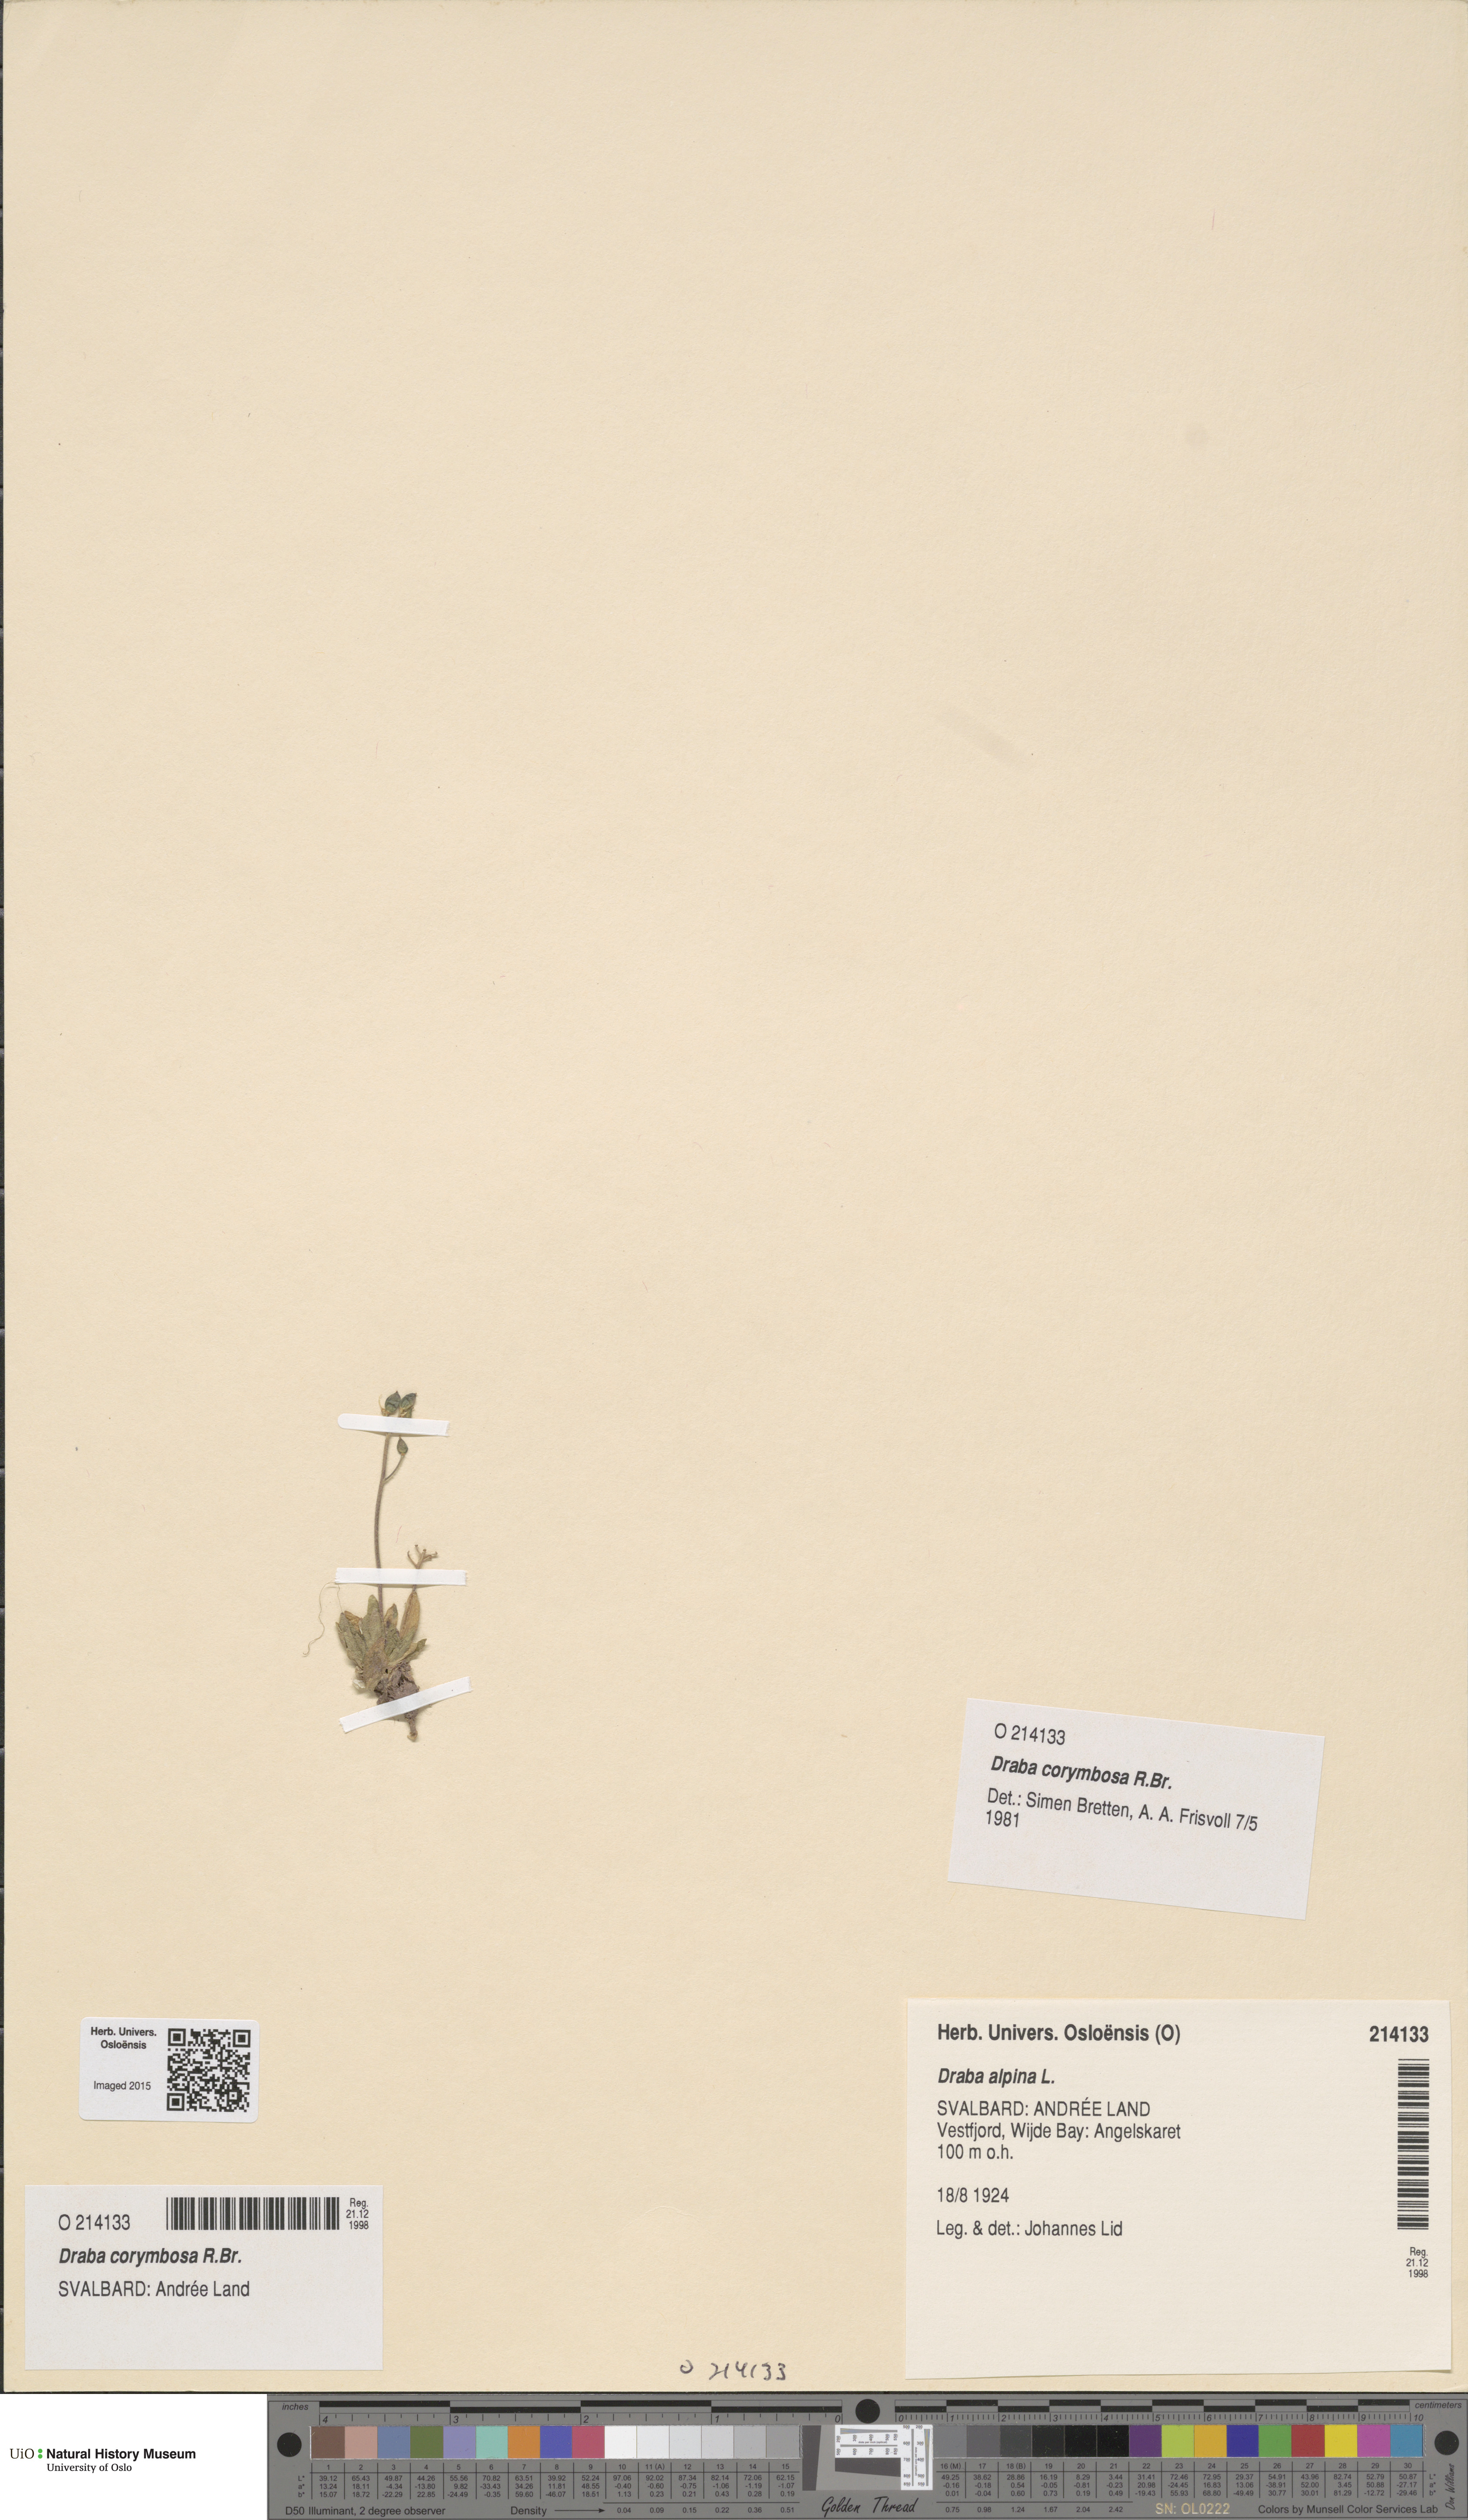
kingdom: Plantae
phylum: Tracheophyta
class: Magnoliopsida
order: Brassicales
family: Brassicaceae
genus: Draba
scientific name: Draba corymbosa
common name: Cushion whitlow-grass
